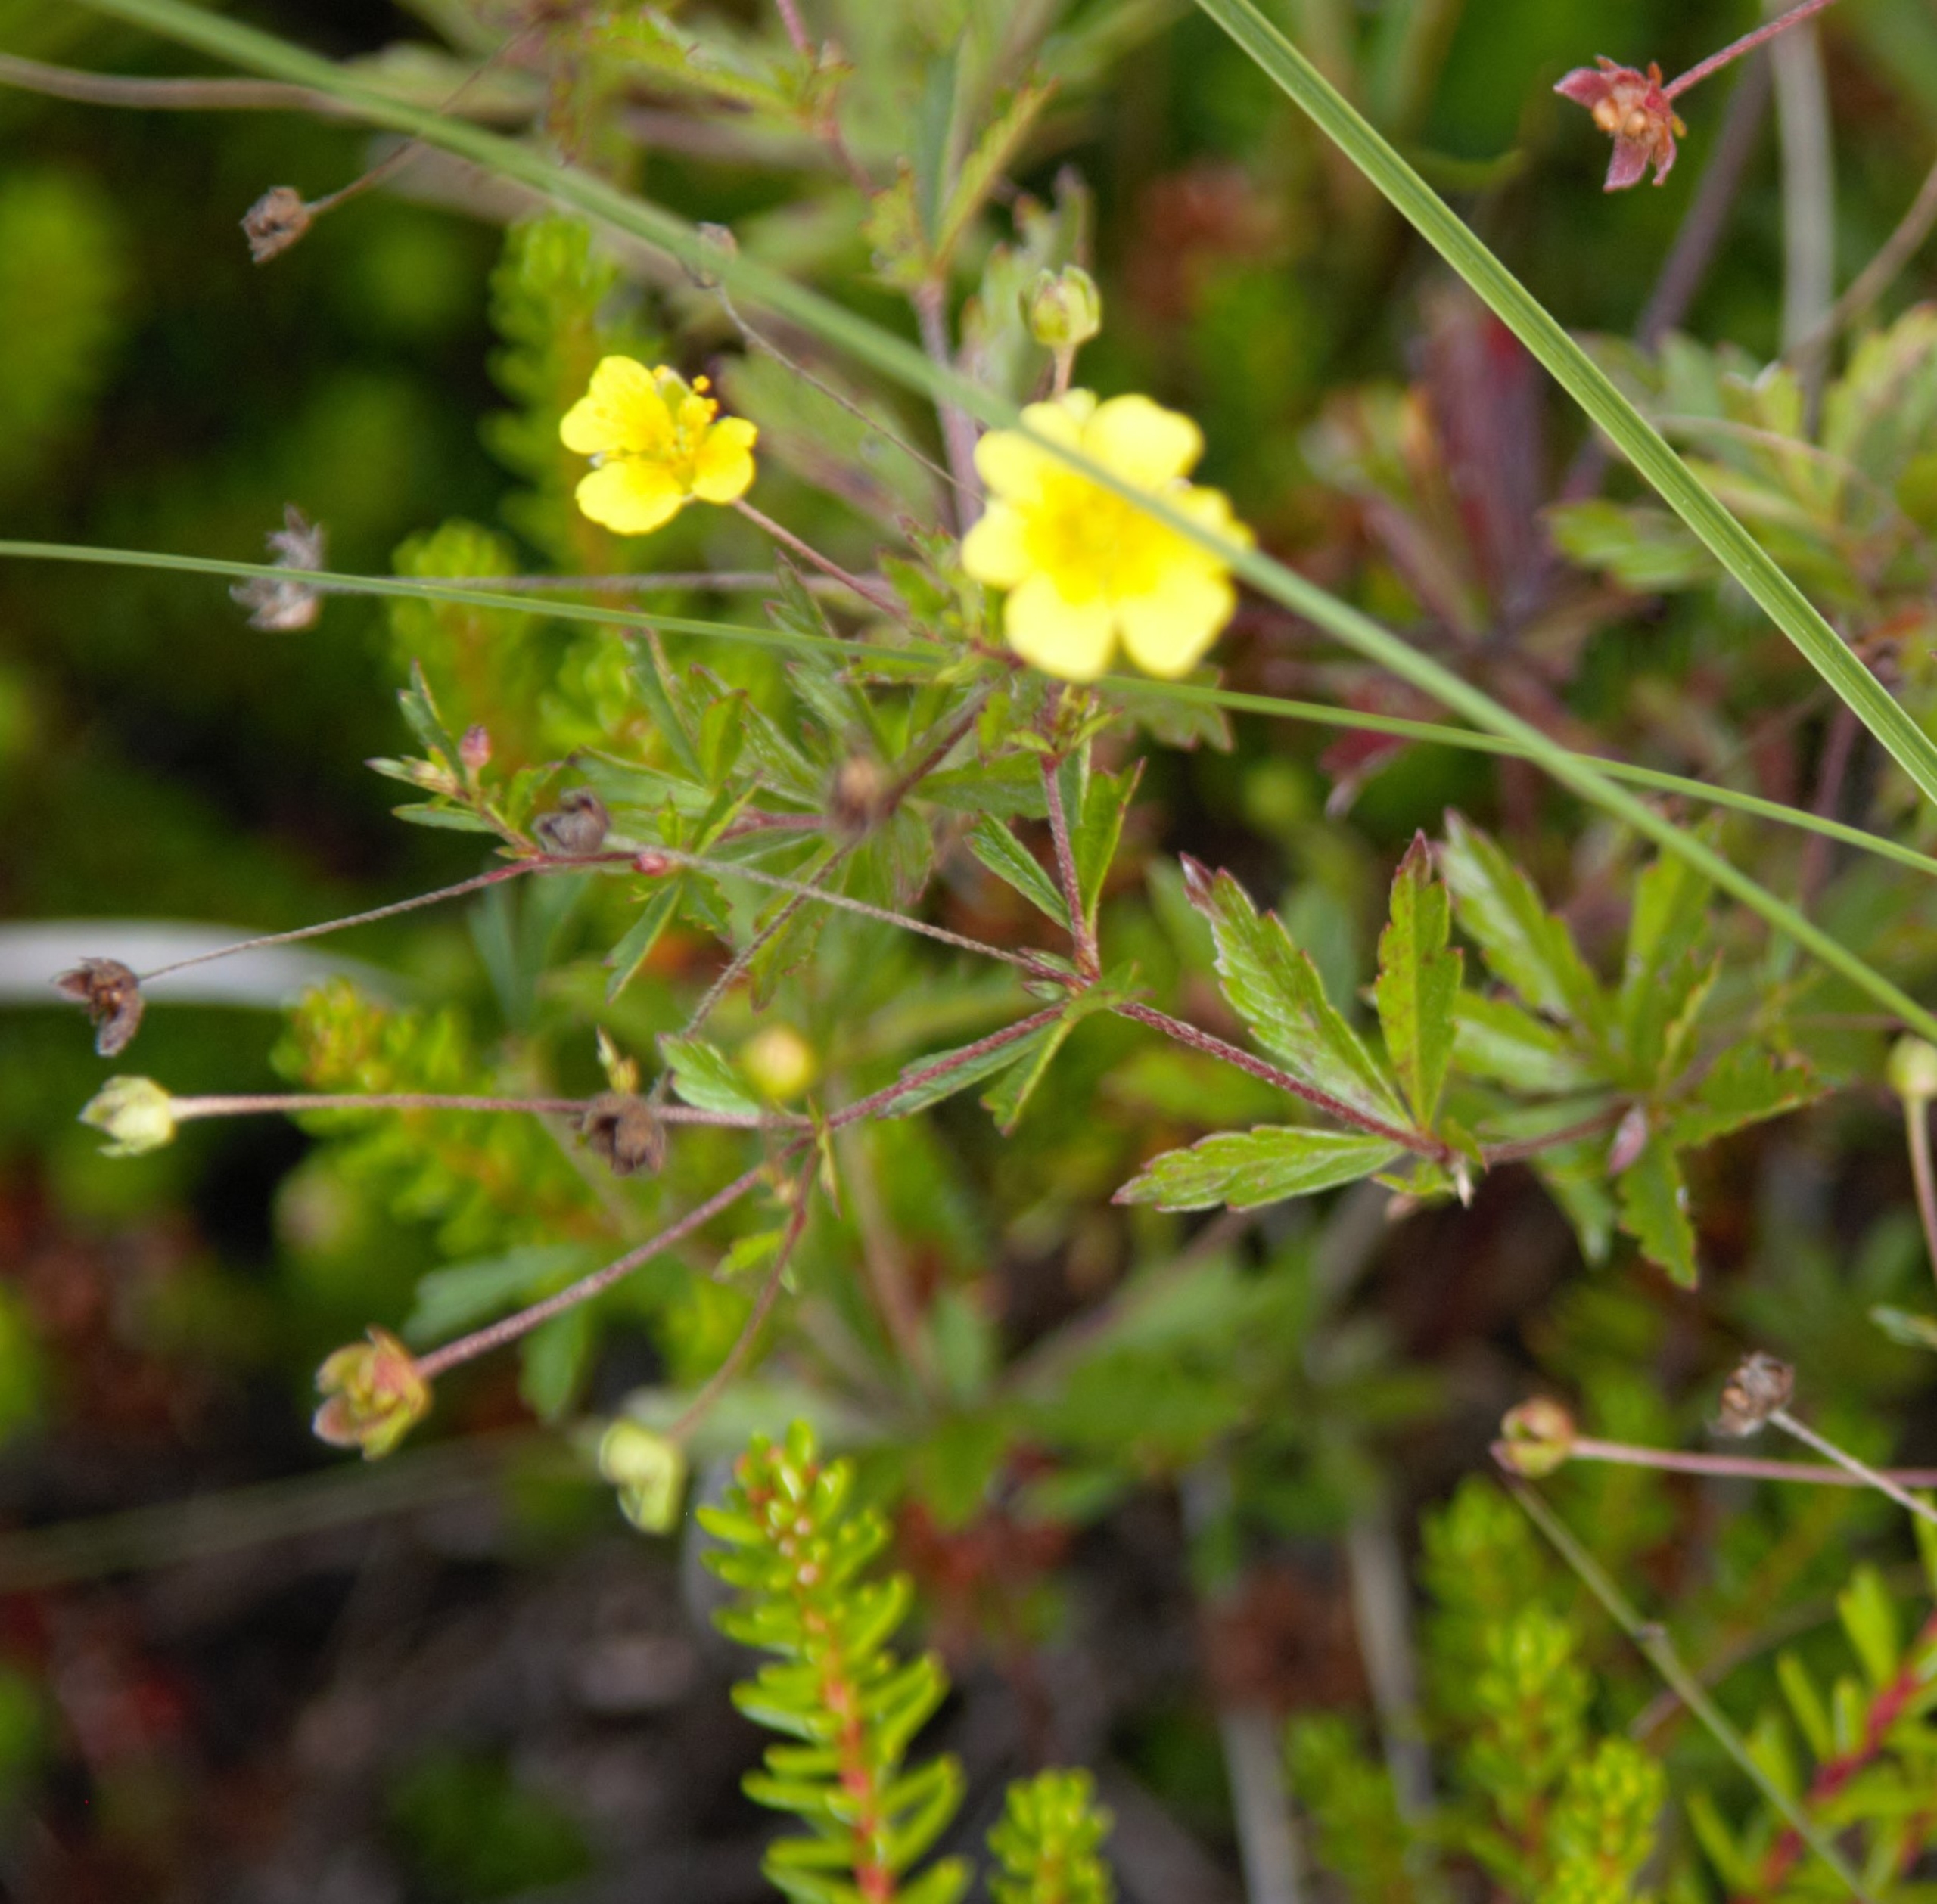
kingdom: Plantae
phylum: Tracheophyta
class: Magnoliopsida
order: Rosales
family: Rosaceae
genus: Potentilla
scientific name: Potentilla erecta
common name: Tormentil
